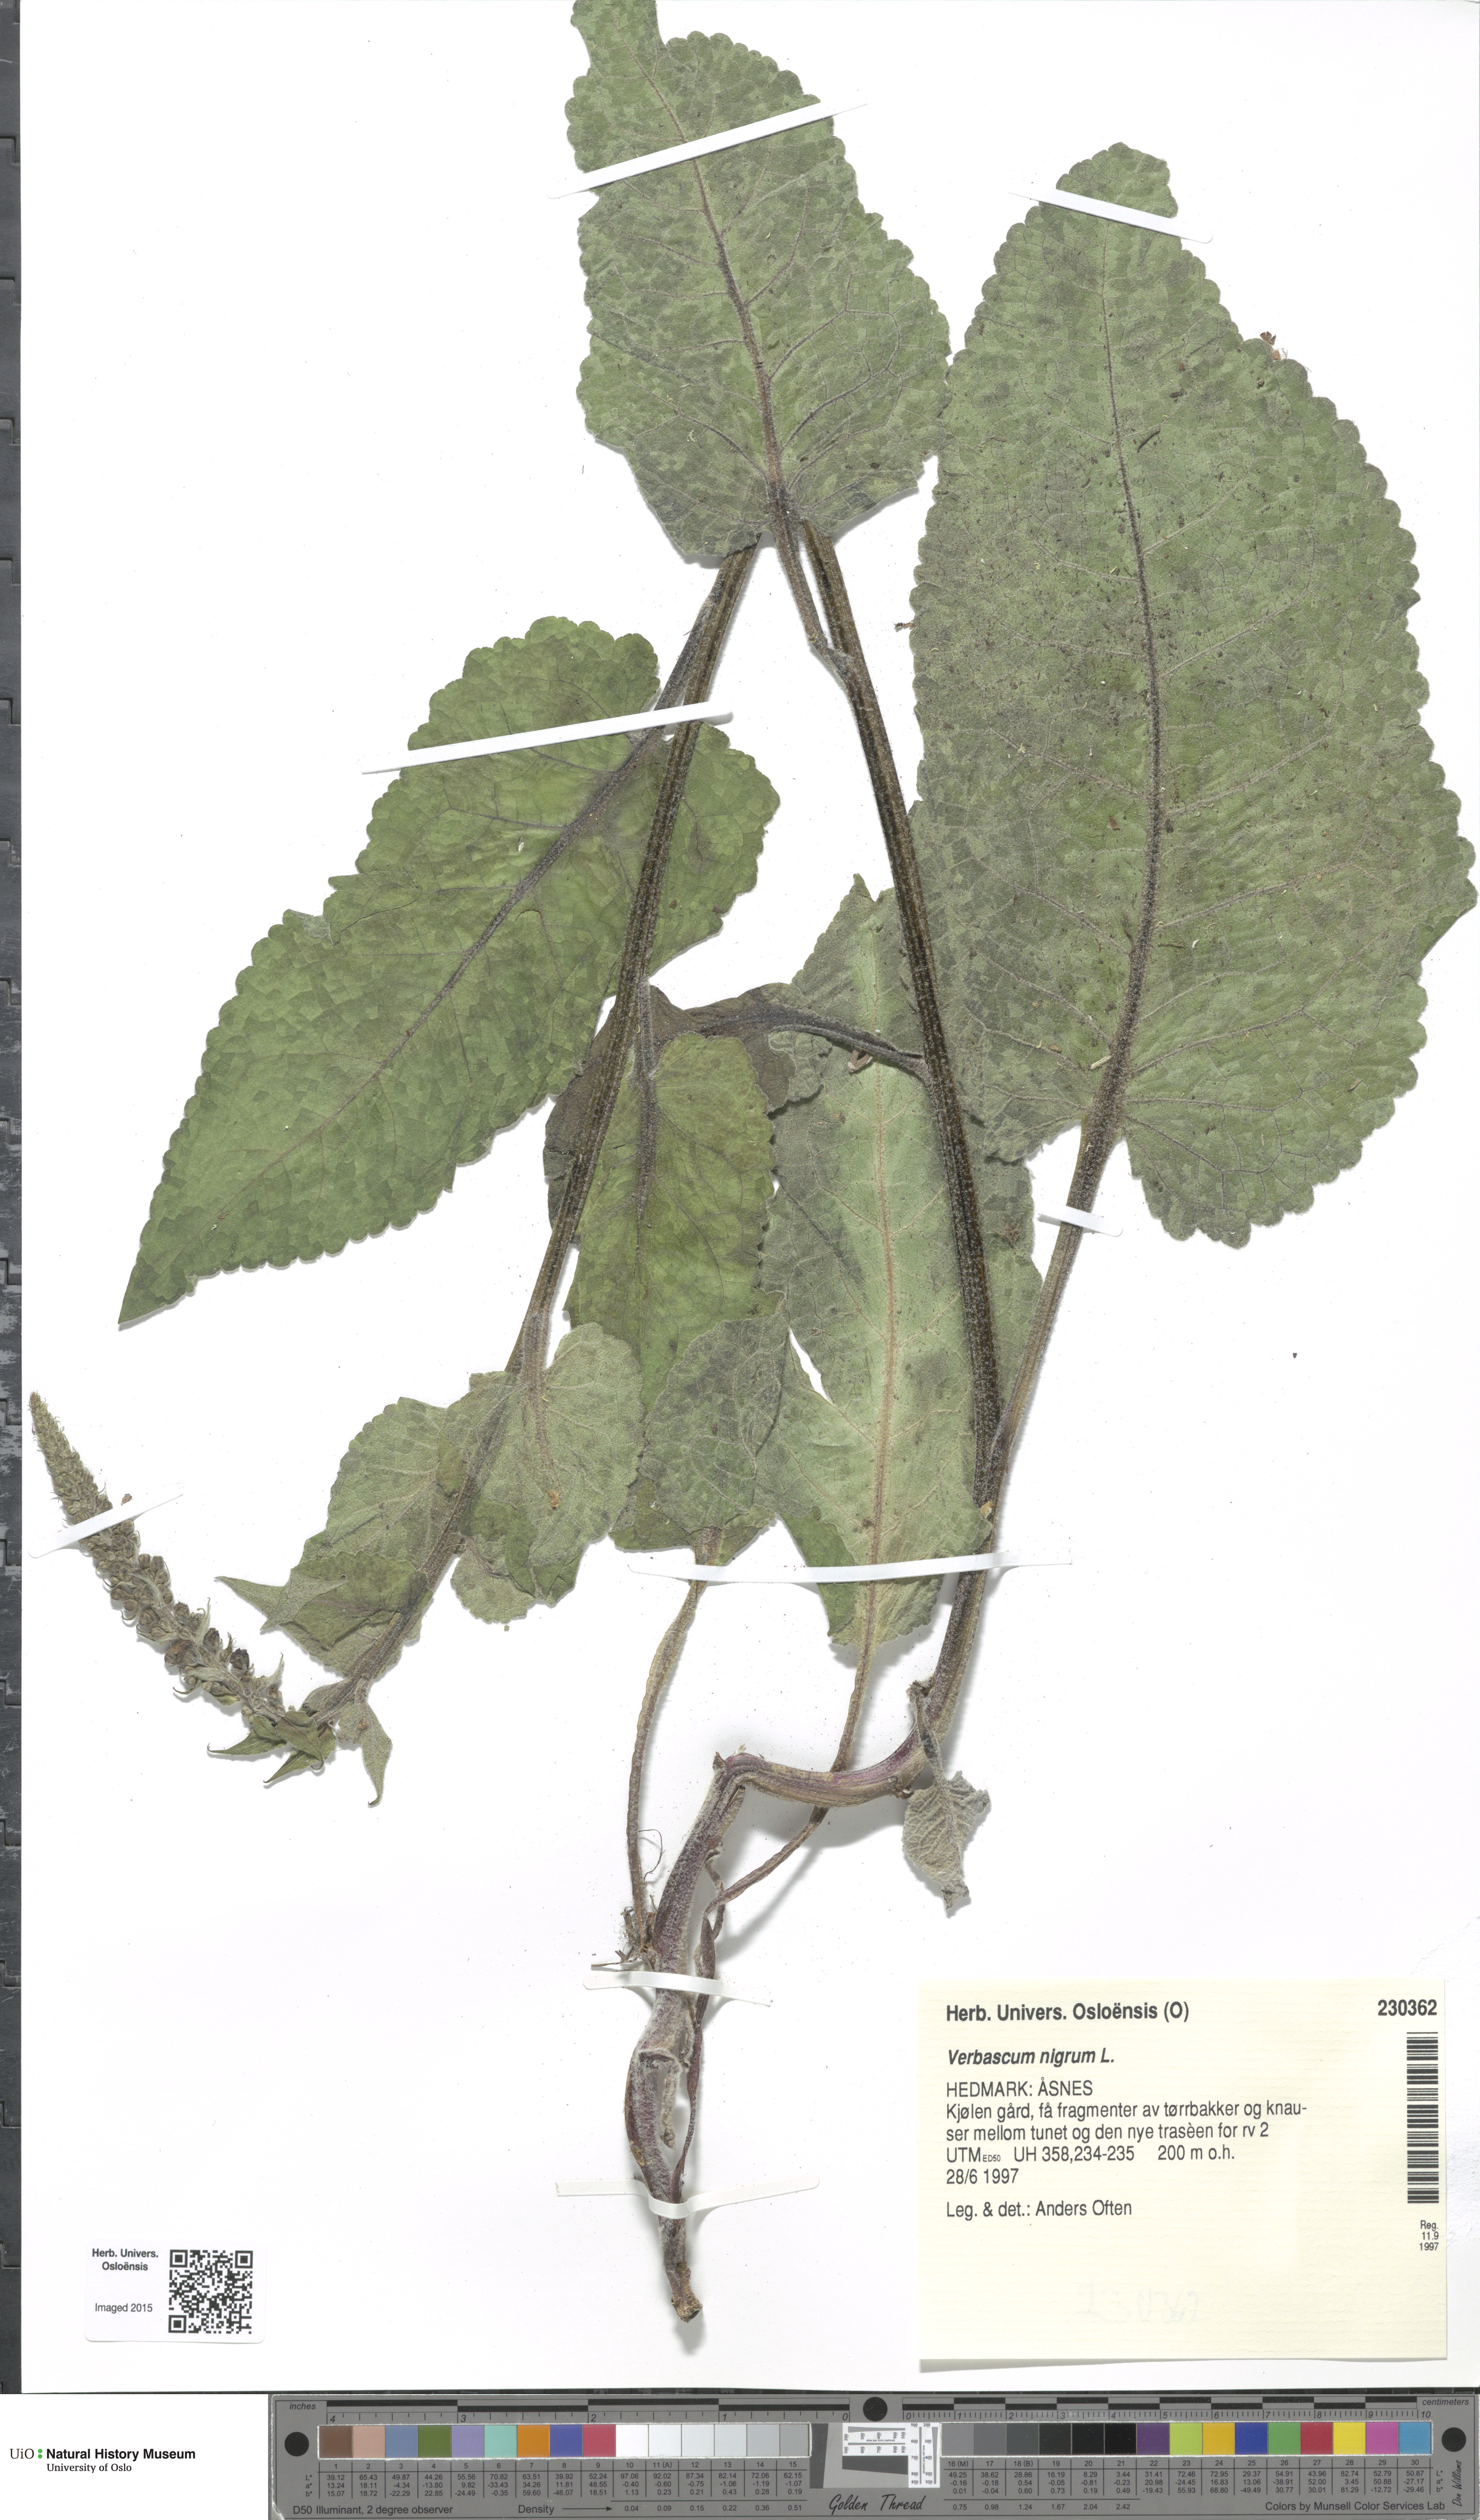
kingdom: Plantae
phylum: Tracheophyta
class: Magnoliopsida
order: Lamiales
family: Scrophulariaceae
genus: Verbascum
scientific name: Verbascum nigrum
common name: Dark mullein
